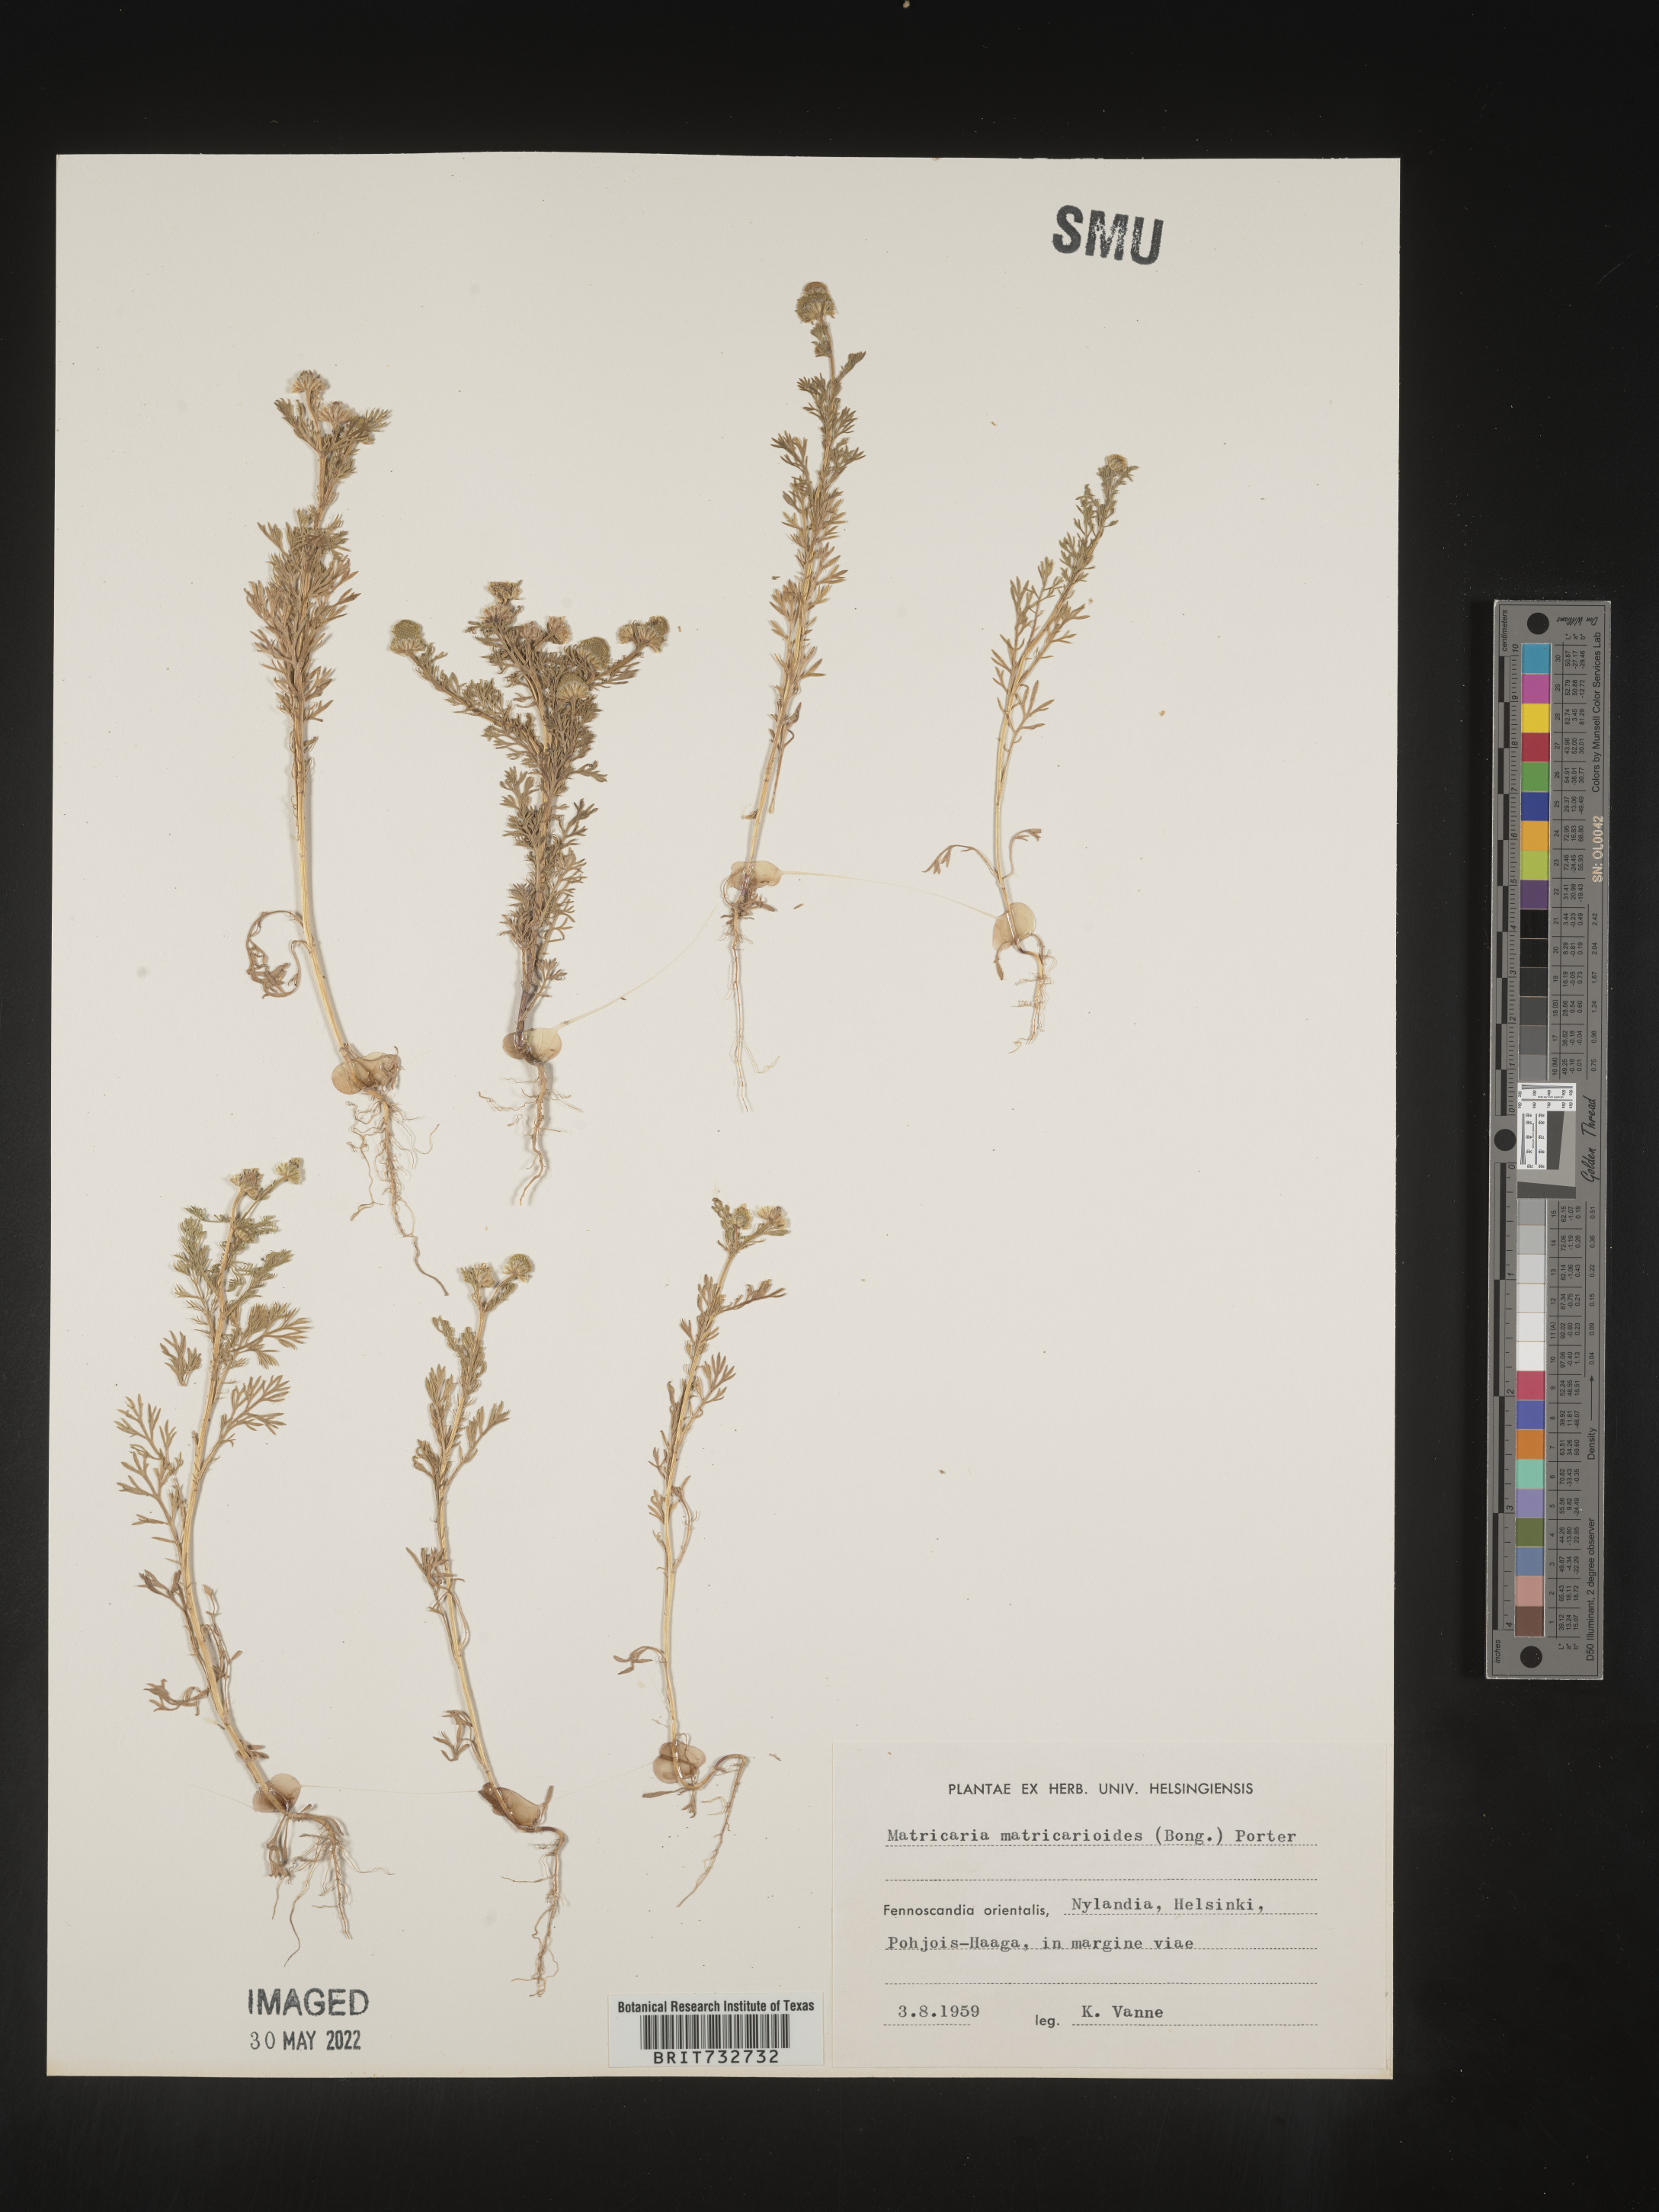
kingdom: Plantae
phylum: Tracheophyta
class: Magnoliopsida
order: Asterales
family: Asteraceae
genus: Matricaria
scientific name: Matricaria
